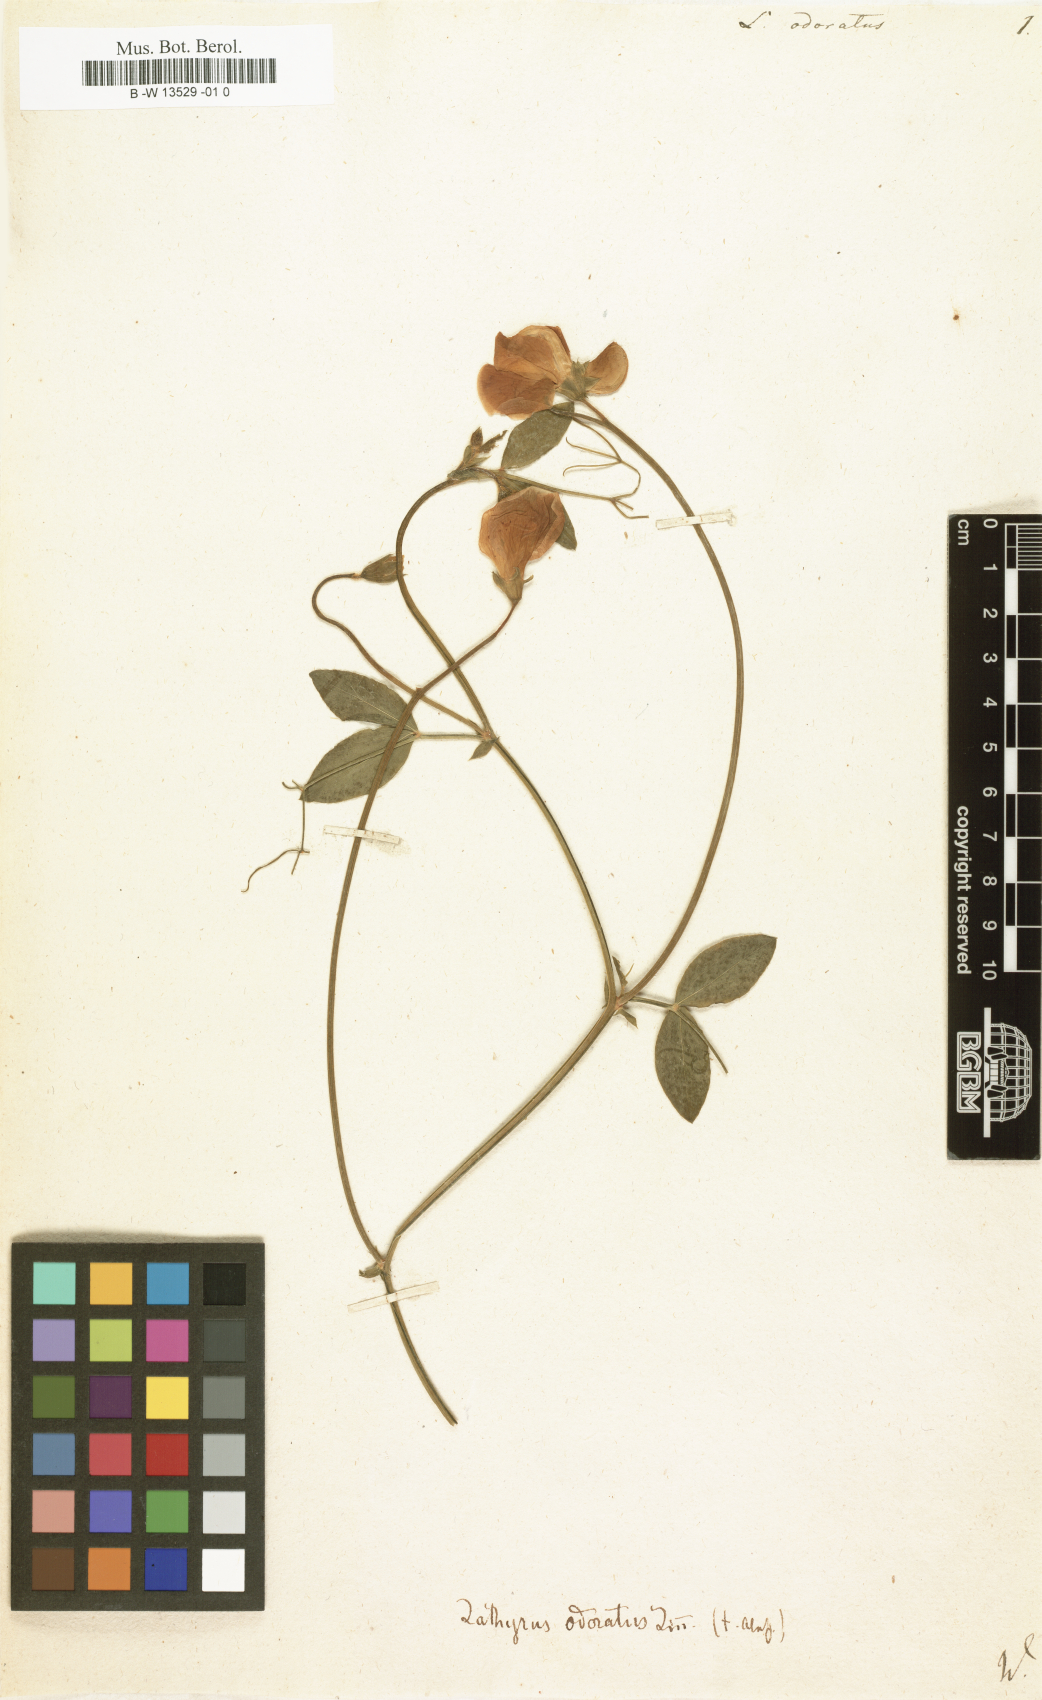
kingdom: Plantae
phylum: Tracheophyta
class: Magnoliopsida
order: Fabales
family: Fabaceae
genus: Lathyrus
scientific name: Lathyrus odoratus
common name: Sweet pea
